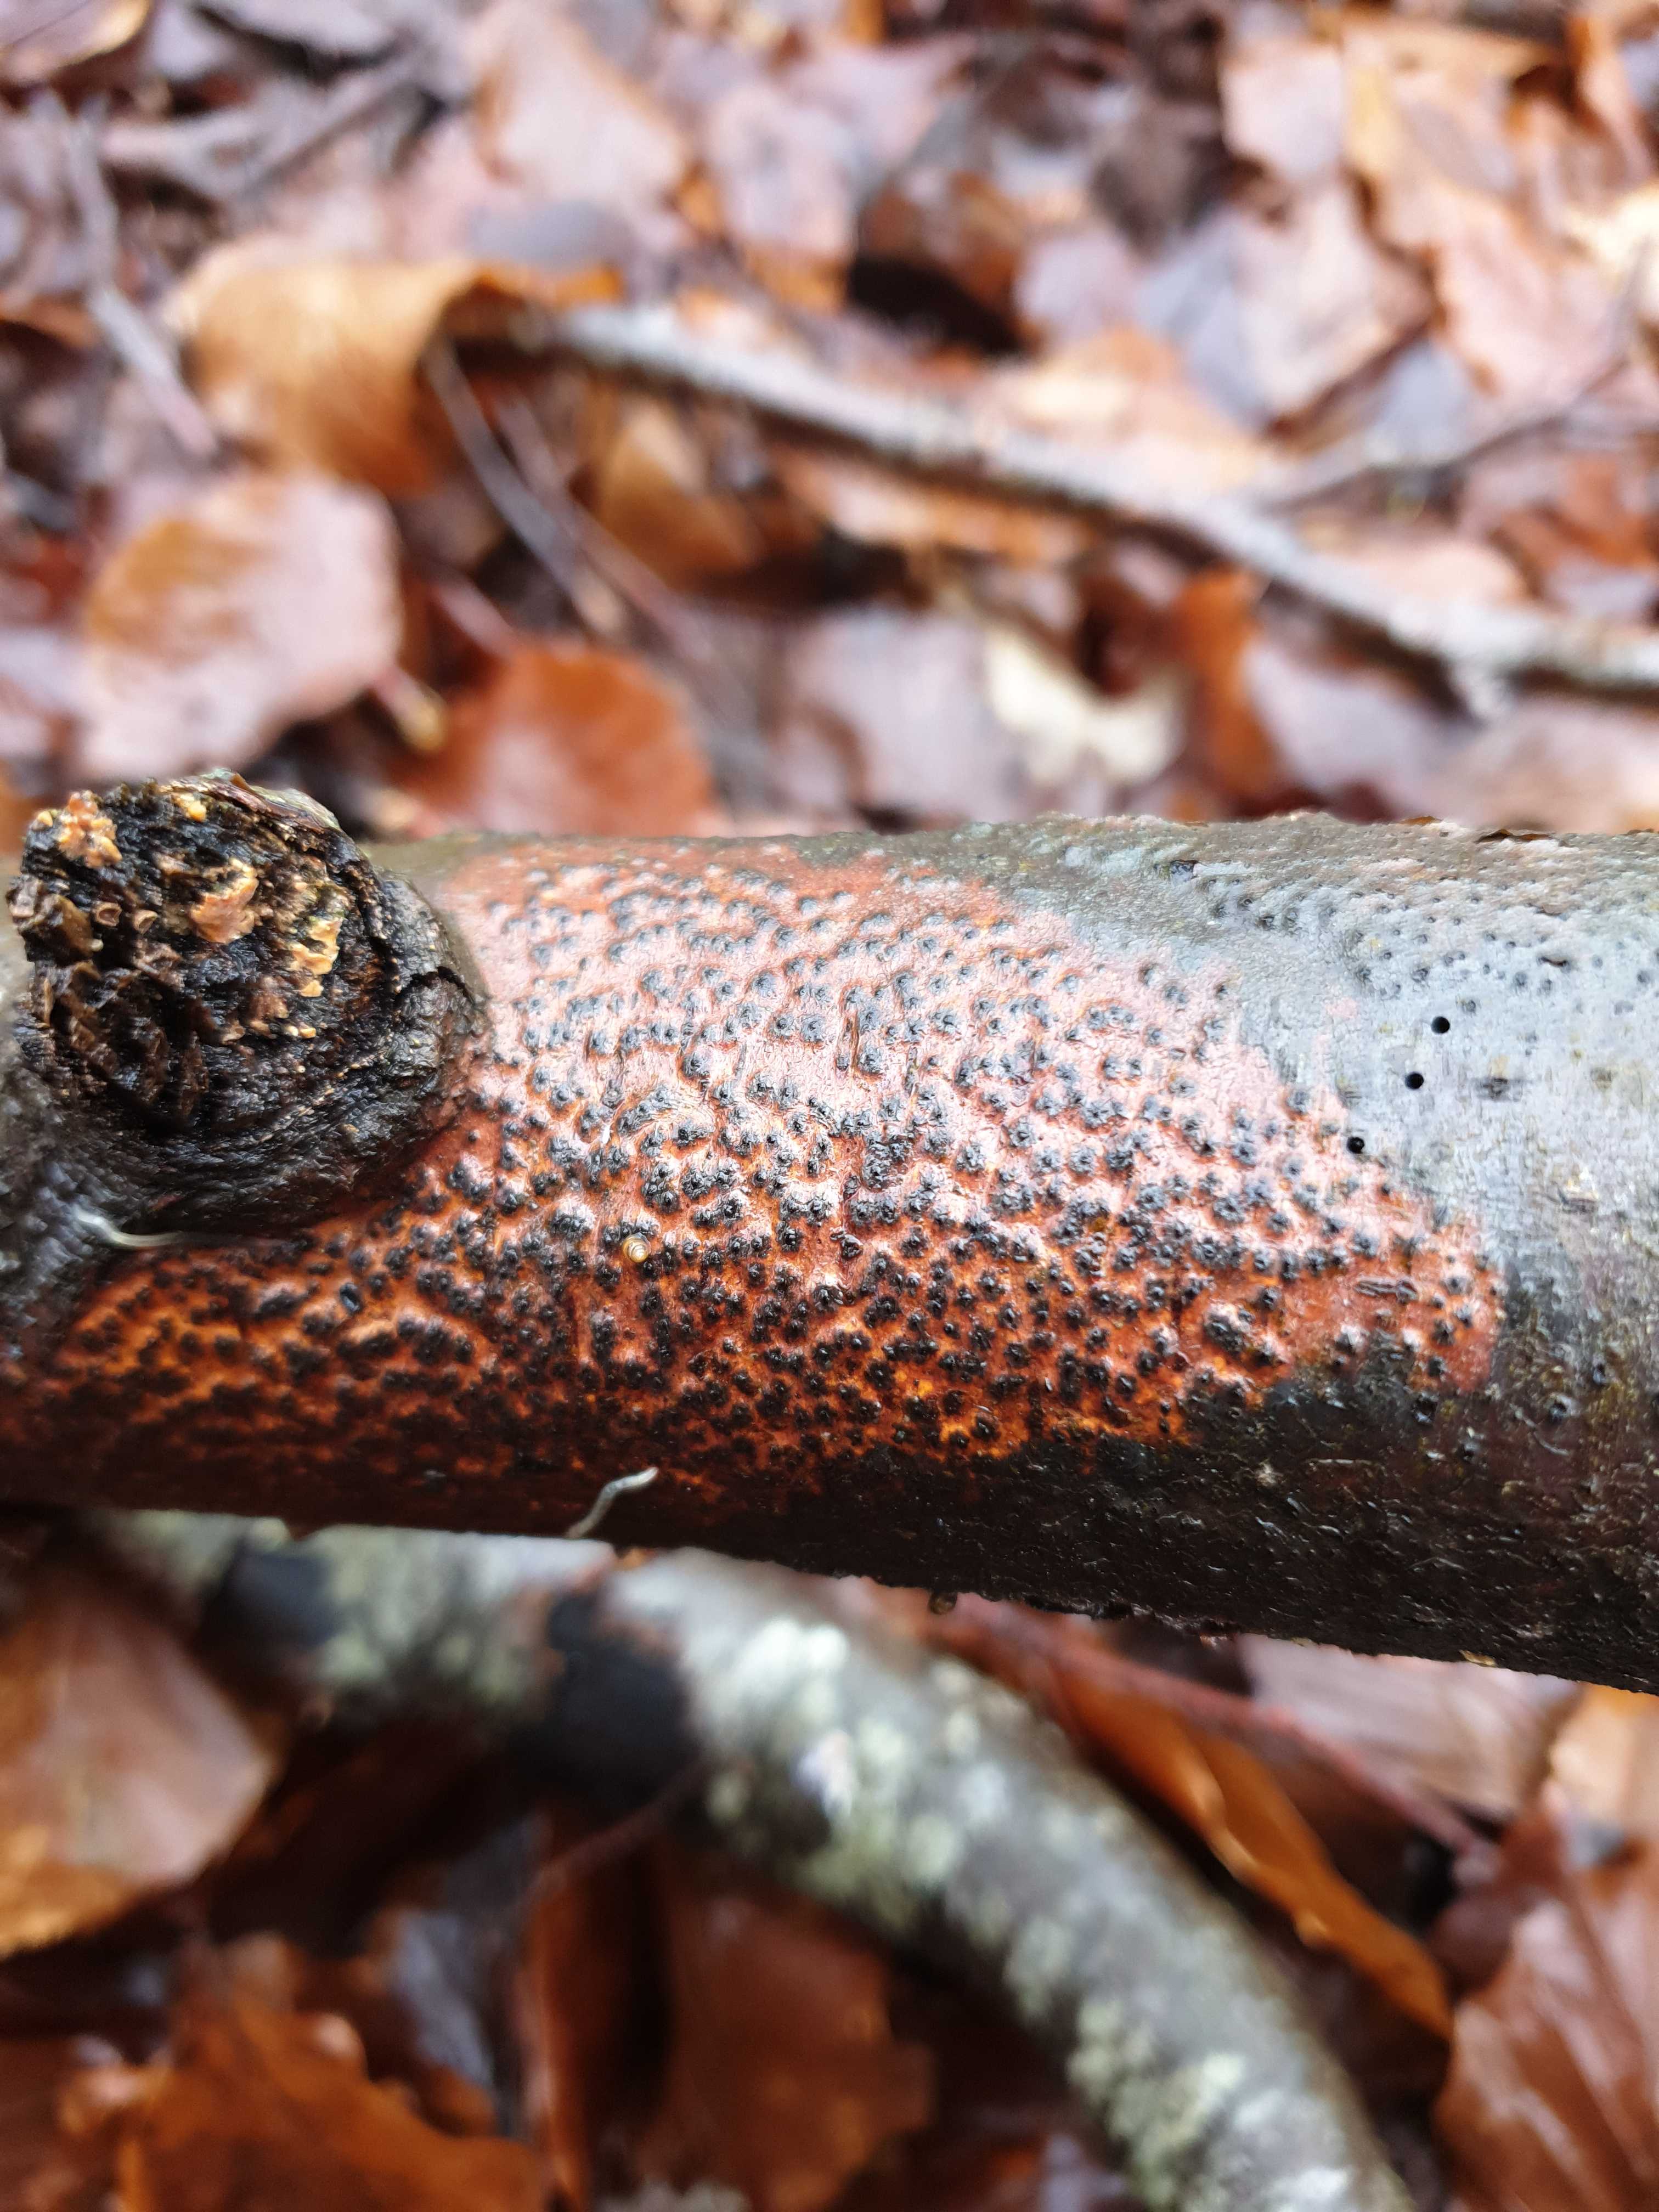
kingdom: Fungi
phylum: Ascomycota
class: Sordariomycetes
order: Xylariales
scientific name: Xylariales
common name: stødsvampordenen
